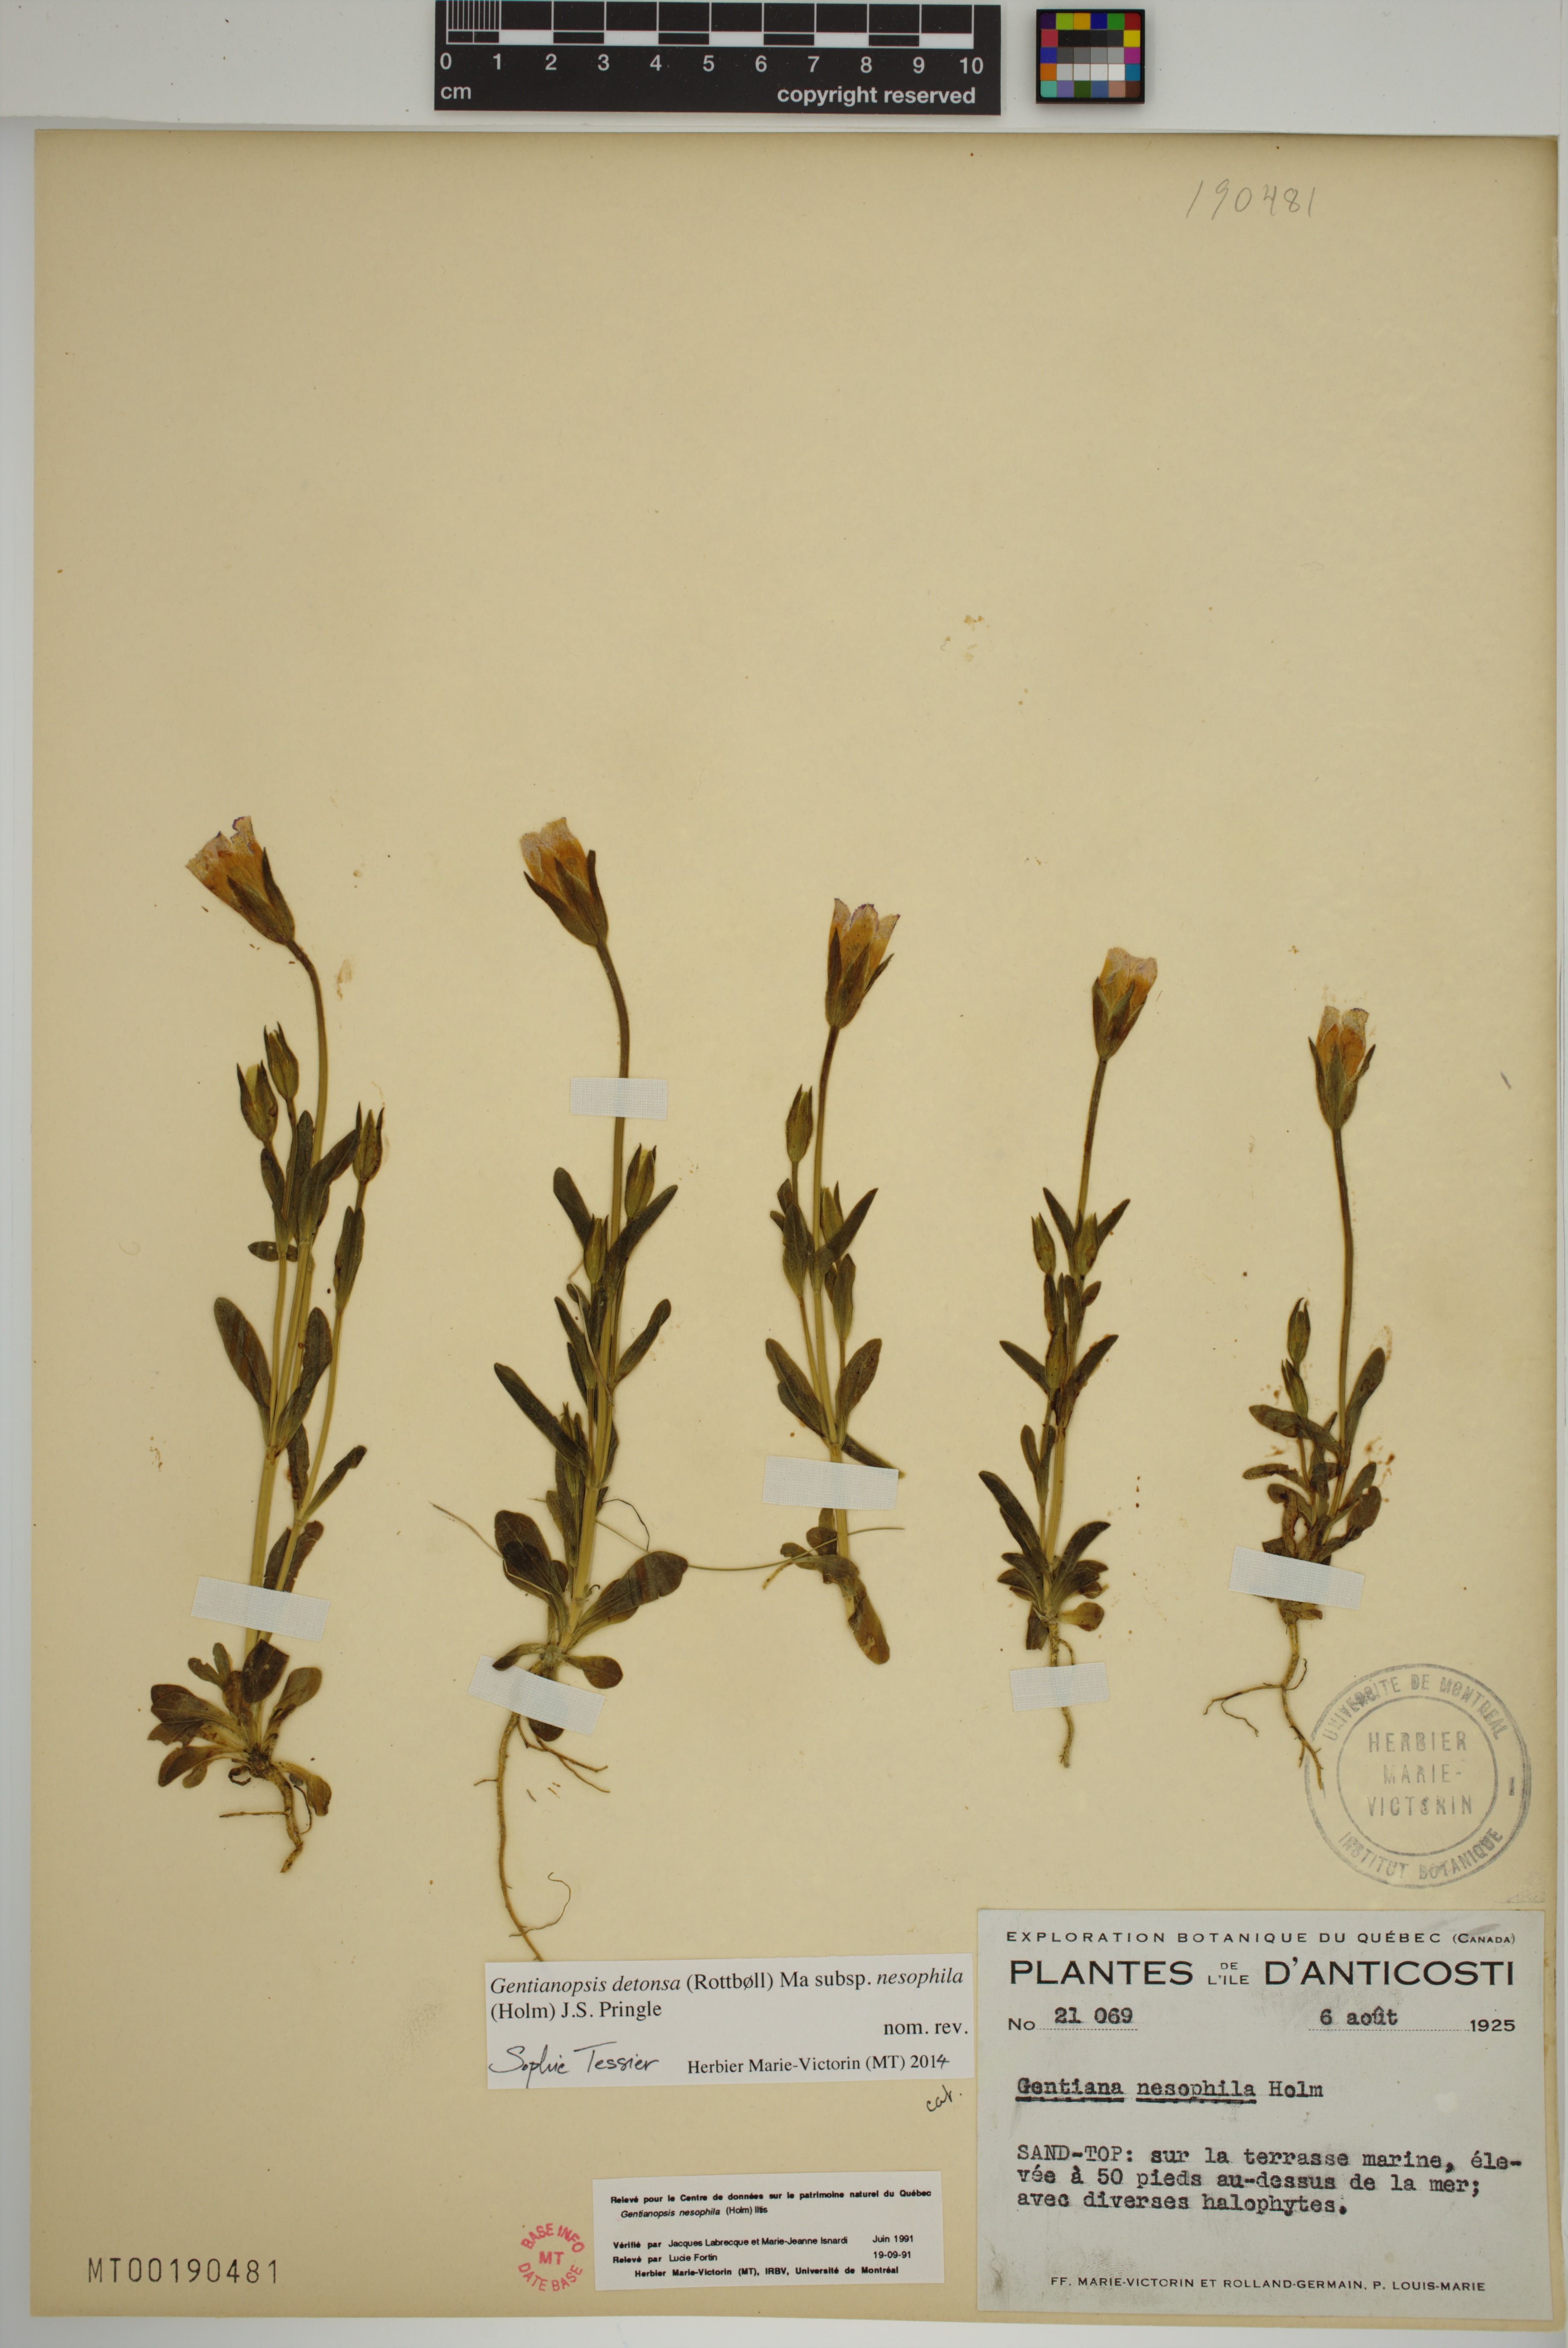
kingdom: Plantae
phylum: Tracheophyta
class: Magnoliopsida
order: Gentianales
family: Gentianaceae
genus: Gentianopsis
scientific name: Gentianopsis nesophila
